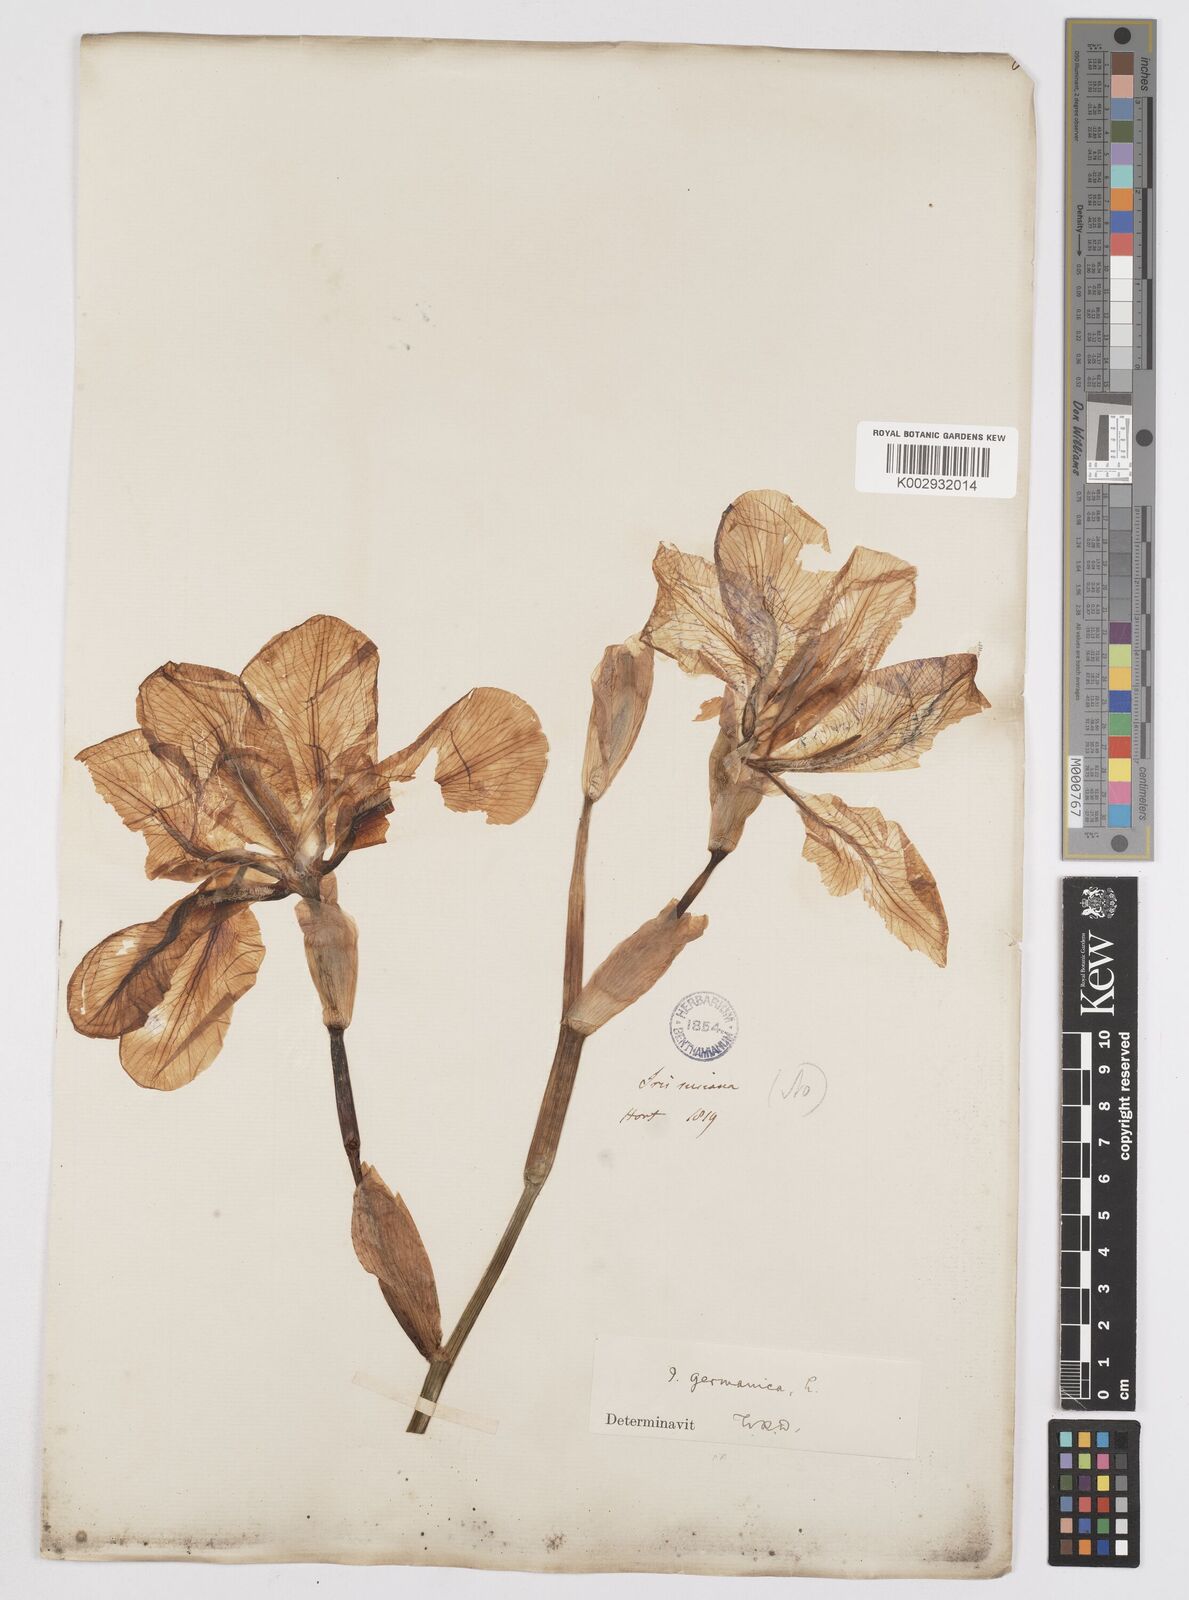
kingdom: Plantae
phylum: Tracheophyta
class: Liliopsida
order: Asparagales
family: Iridaceae
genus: Iris
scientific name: Iris germanica
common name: German iris
